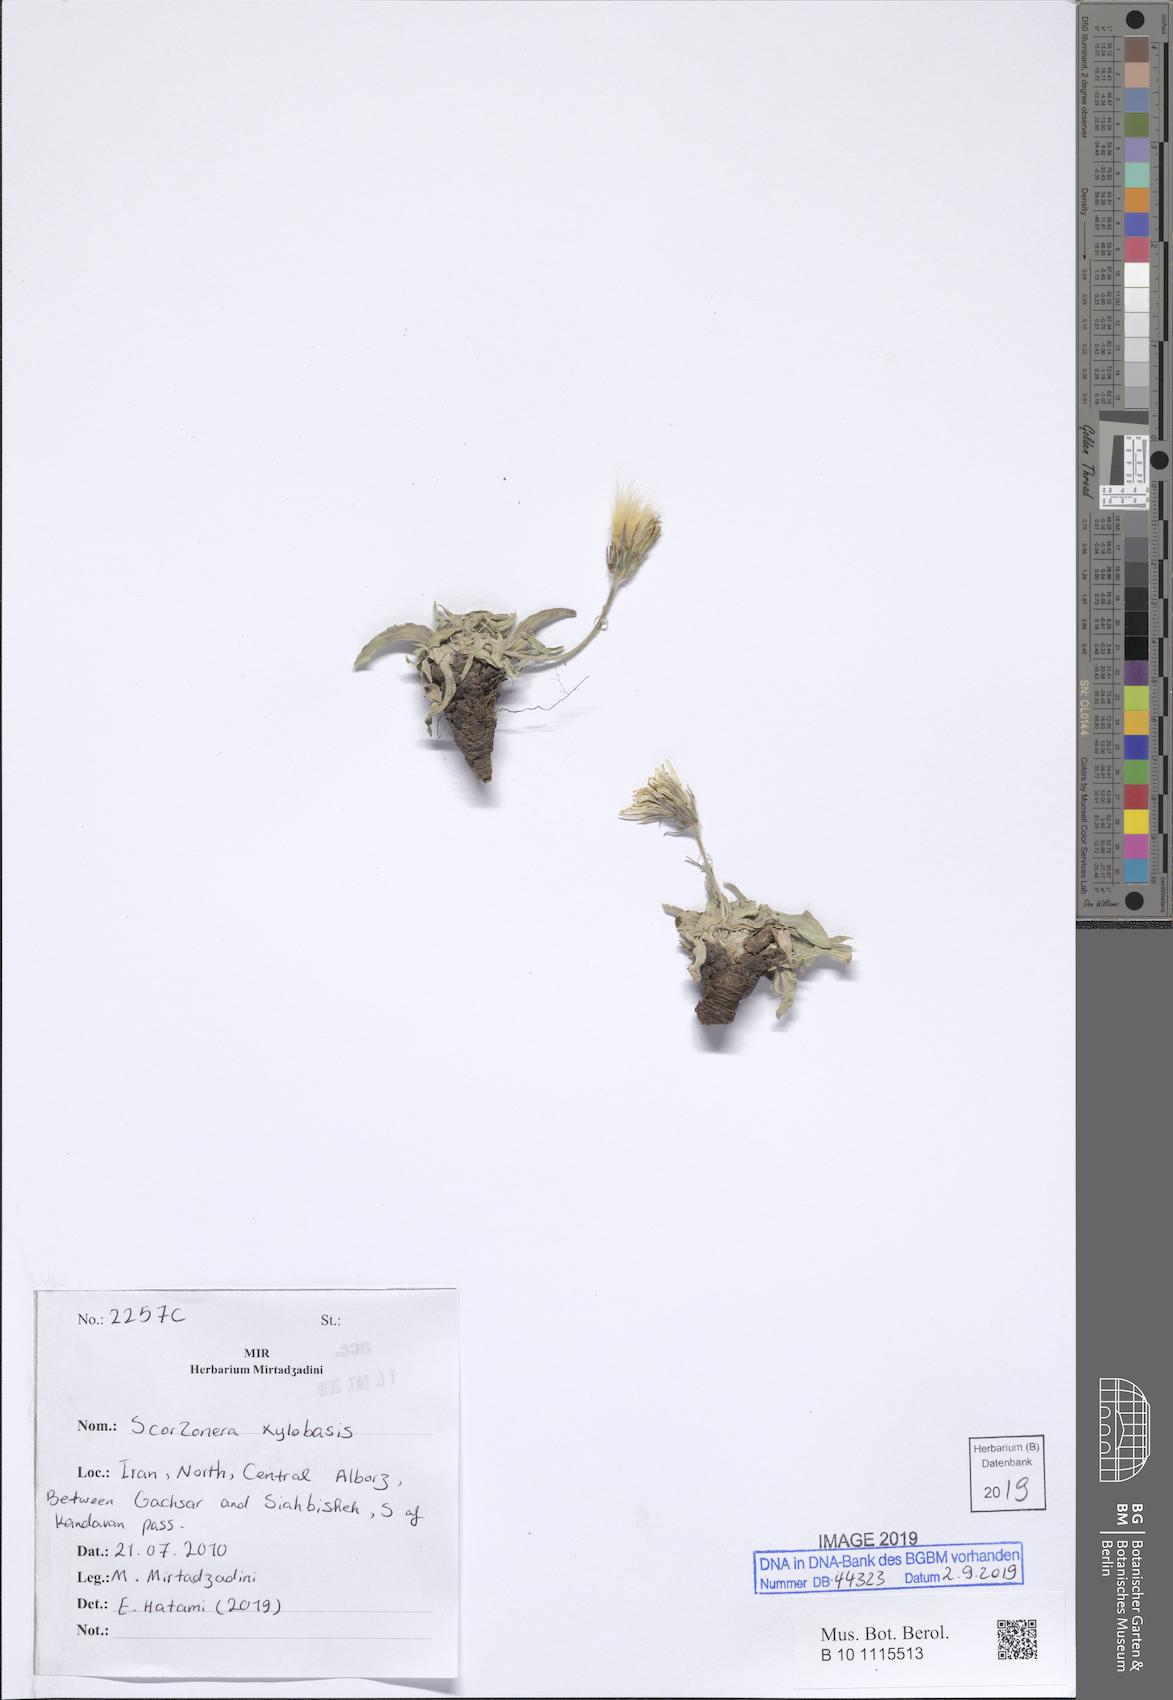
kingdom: Plantae
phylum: Tracheophyta
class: Magnoliopsida
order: Asterales
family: Asteraceae
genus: Gelasia
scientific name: Gelasia
